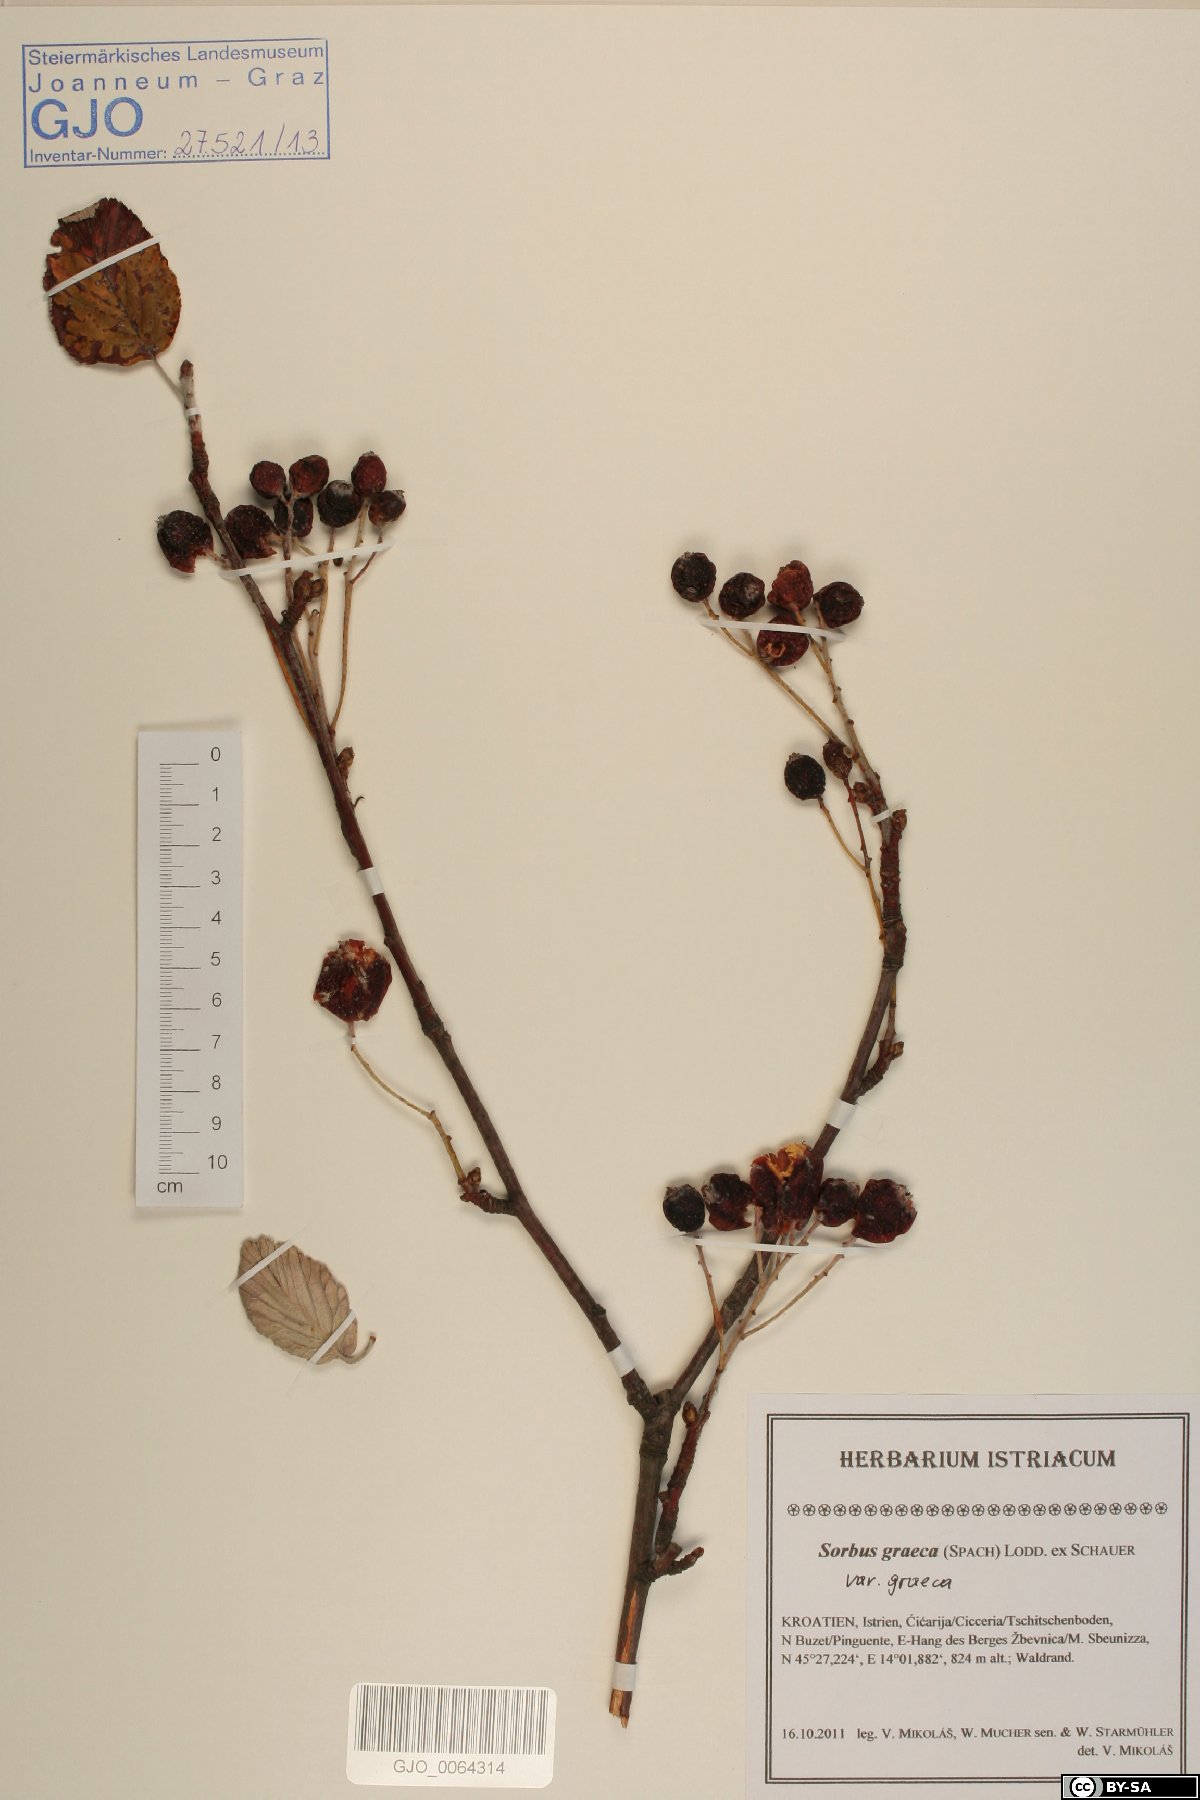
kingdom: Plantae
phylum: Tracheophyta
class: Magnoliopsida
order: Rosales
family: Rosaceae
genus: Sorbus
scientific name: Sorbus graeca
